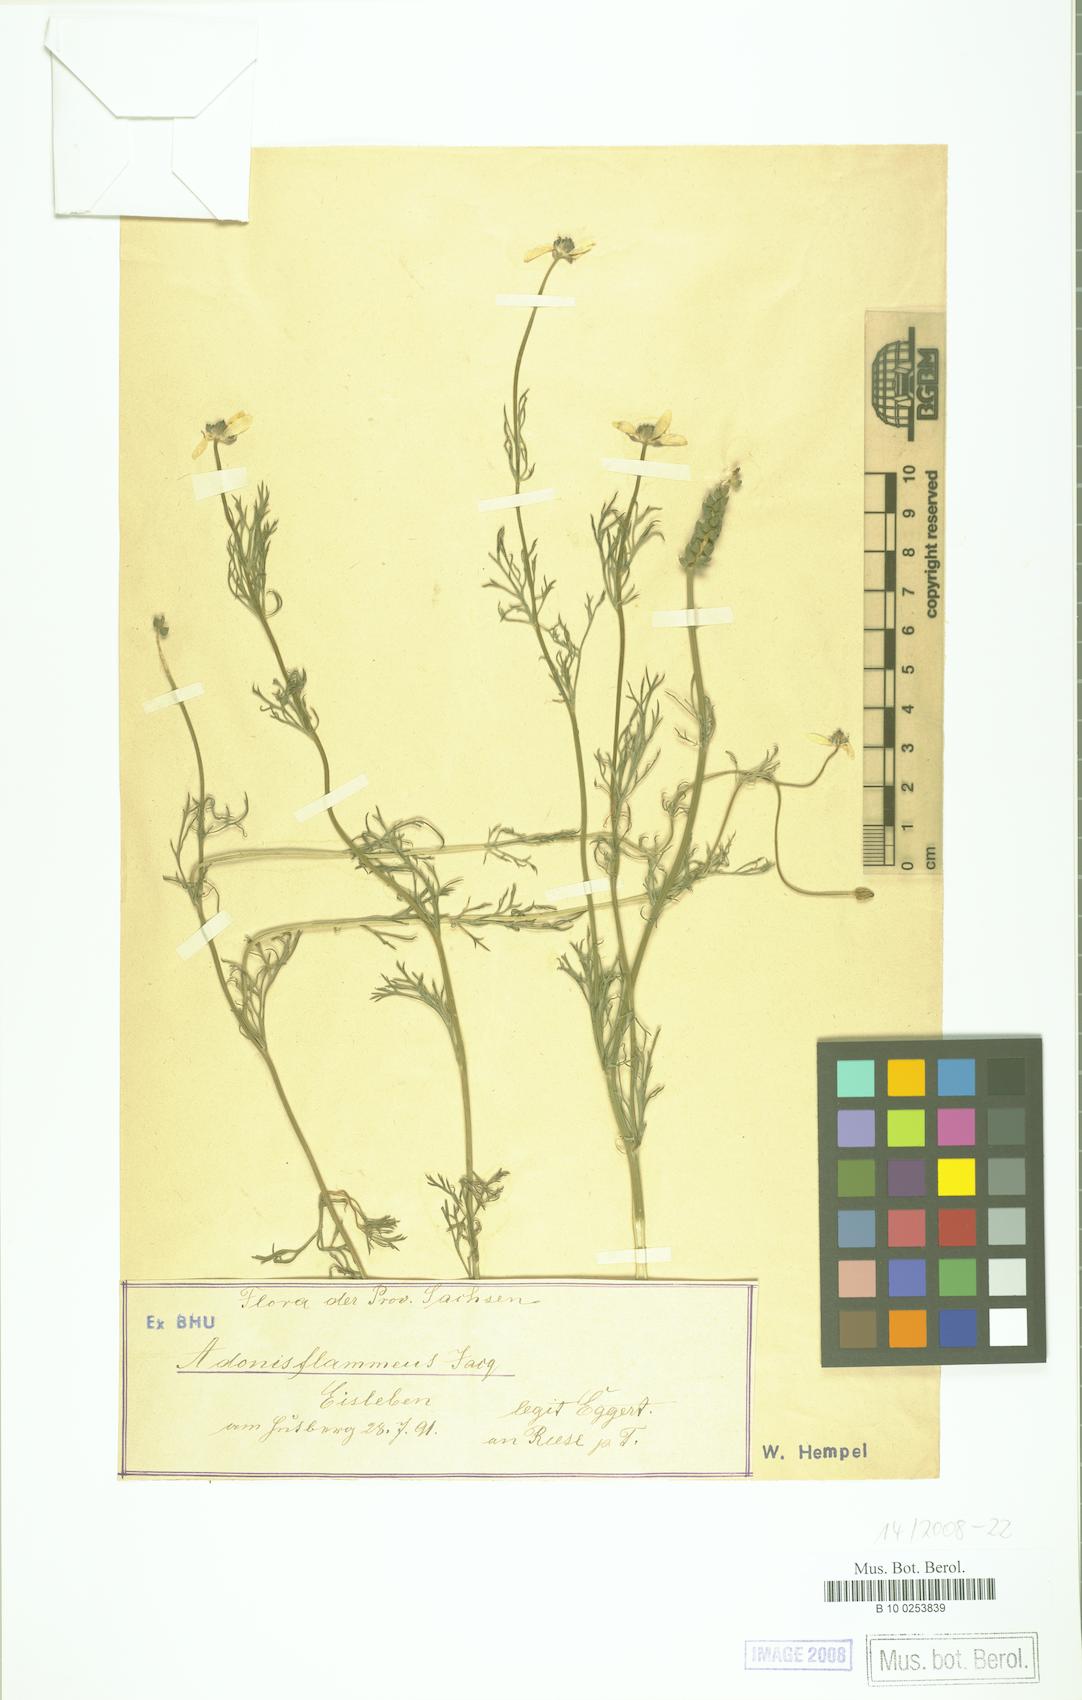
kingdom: Plantae
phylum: Tracheophyta
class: Magnoliopsida
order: Ranunculales
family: Ranunculaceae
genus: Adonis
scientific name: Adonis flammea
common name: Large pheasant's-eye
